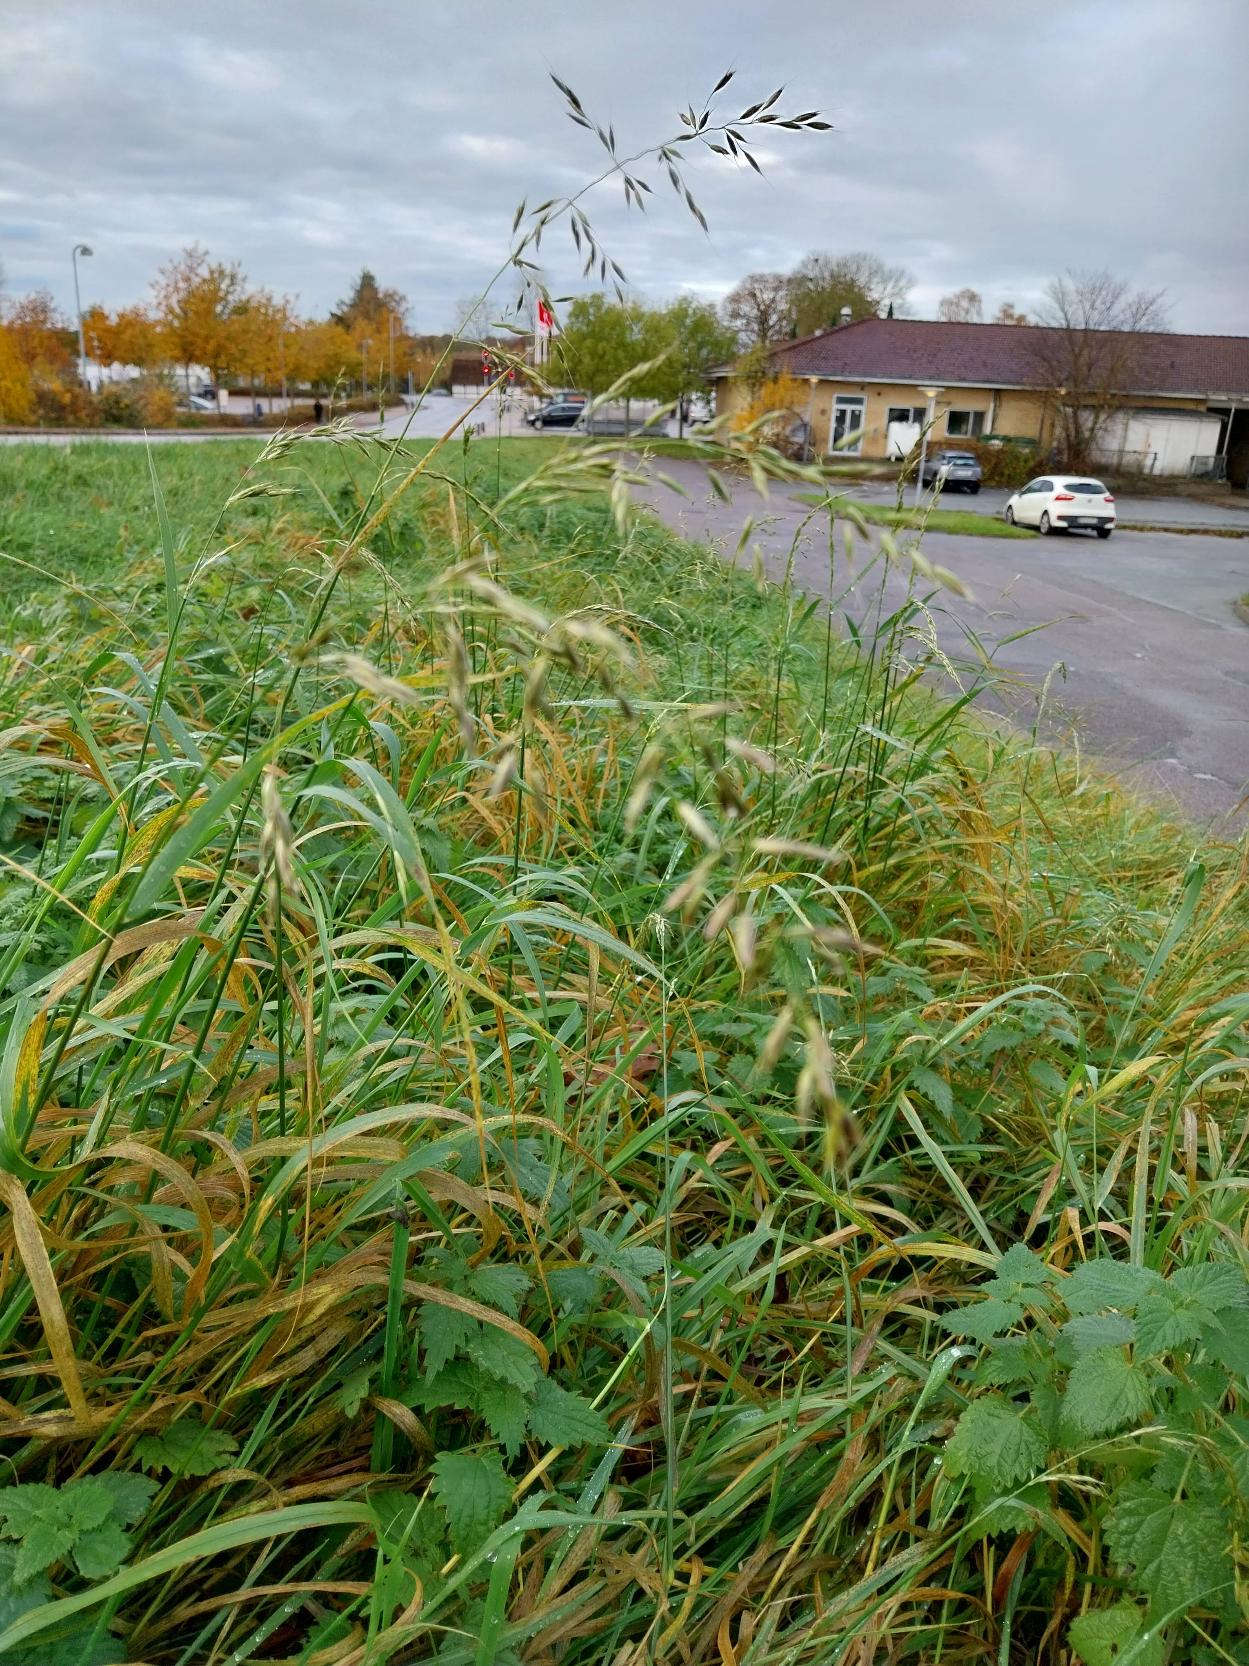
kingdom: Plantae
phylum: Tracheophyta
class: Liliopsida
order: Poales
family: Poaceae
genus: Arrhenatherum
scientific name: Arrhenatherum elatius
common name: Draphavre
